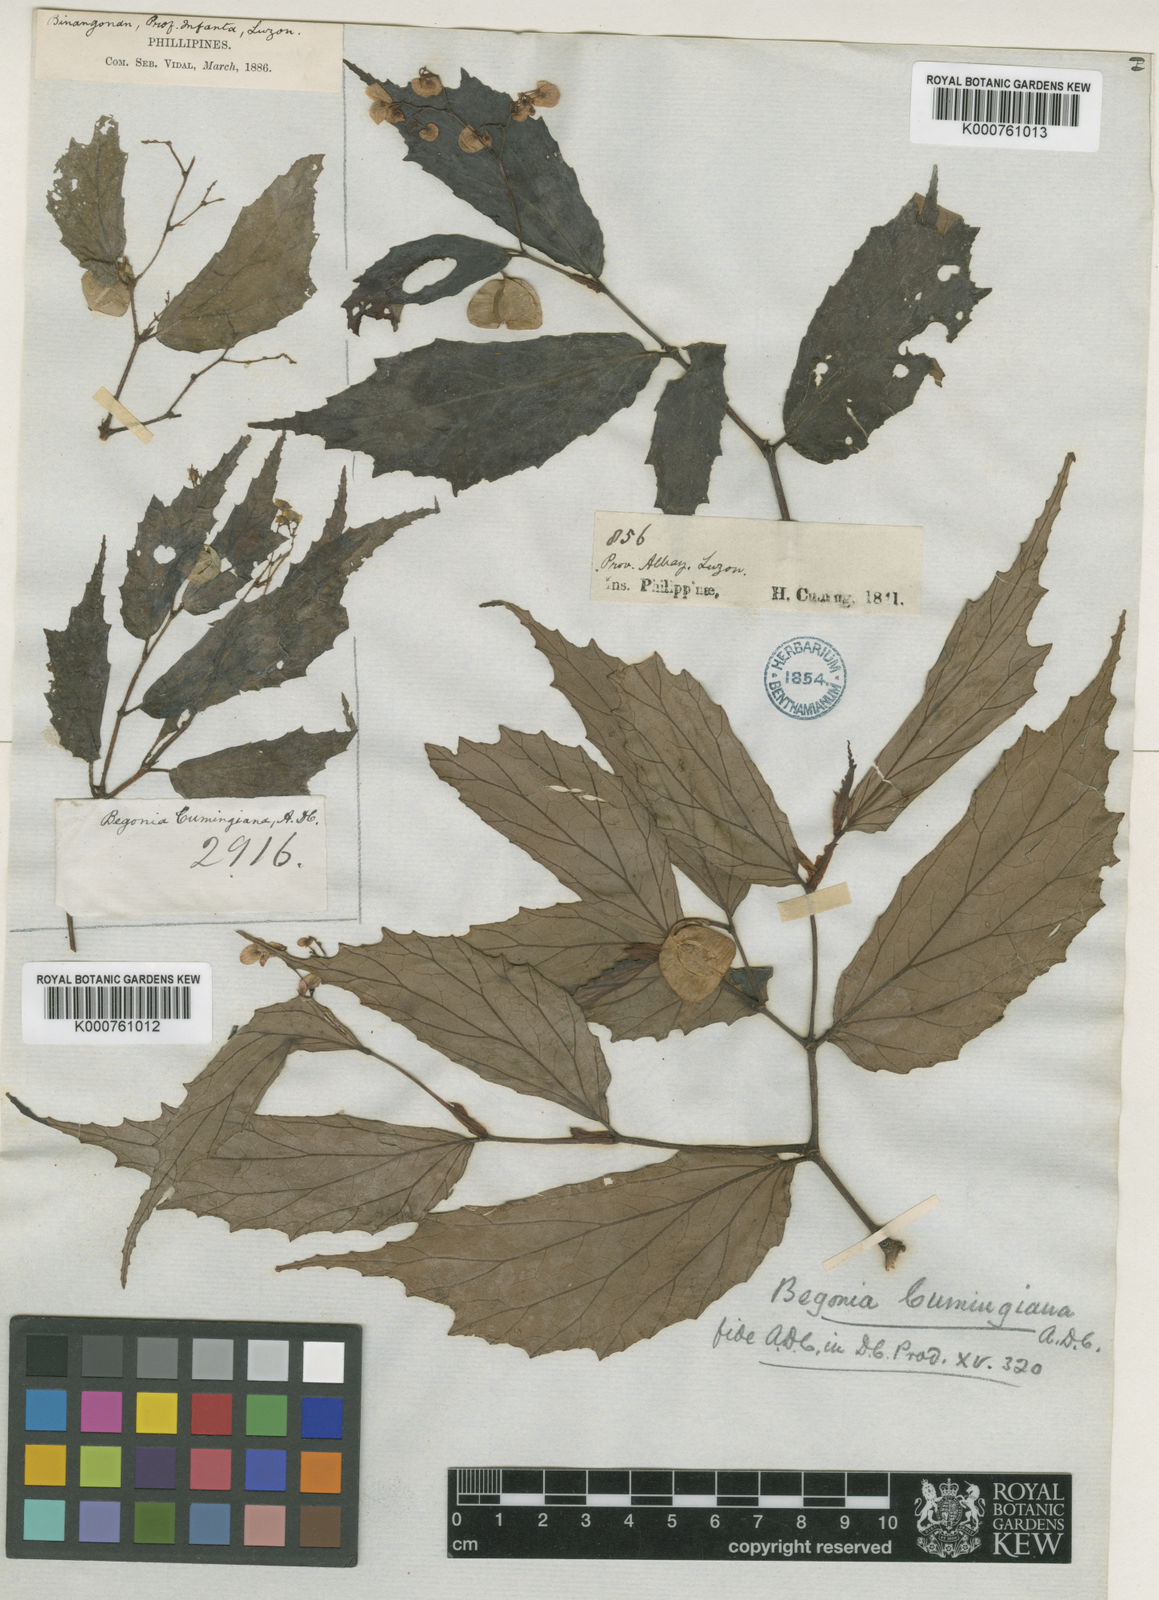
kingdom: Plantae
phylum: Tracheophyta
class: Magnoliopsida
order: Cucurbitales
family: Begoniaceae
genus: Begonia
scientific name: Begonia cumingiana
